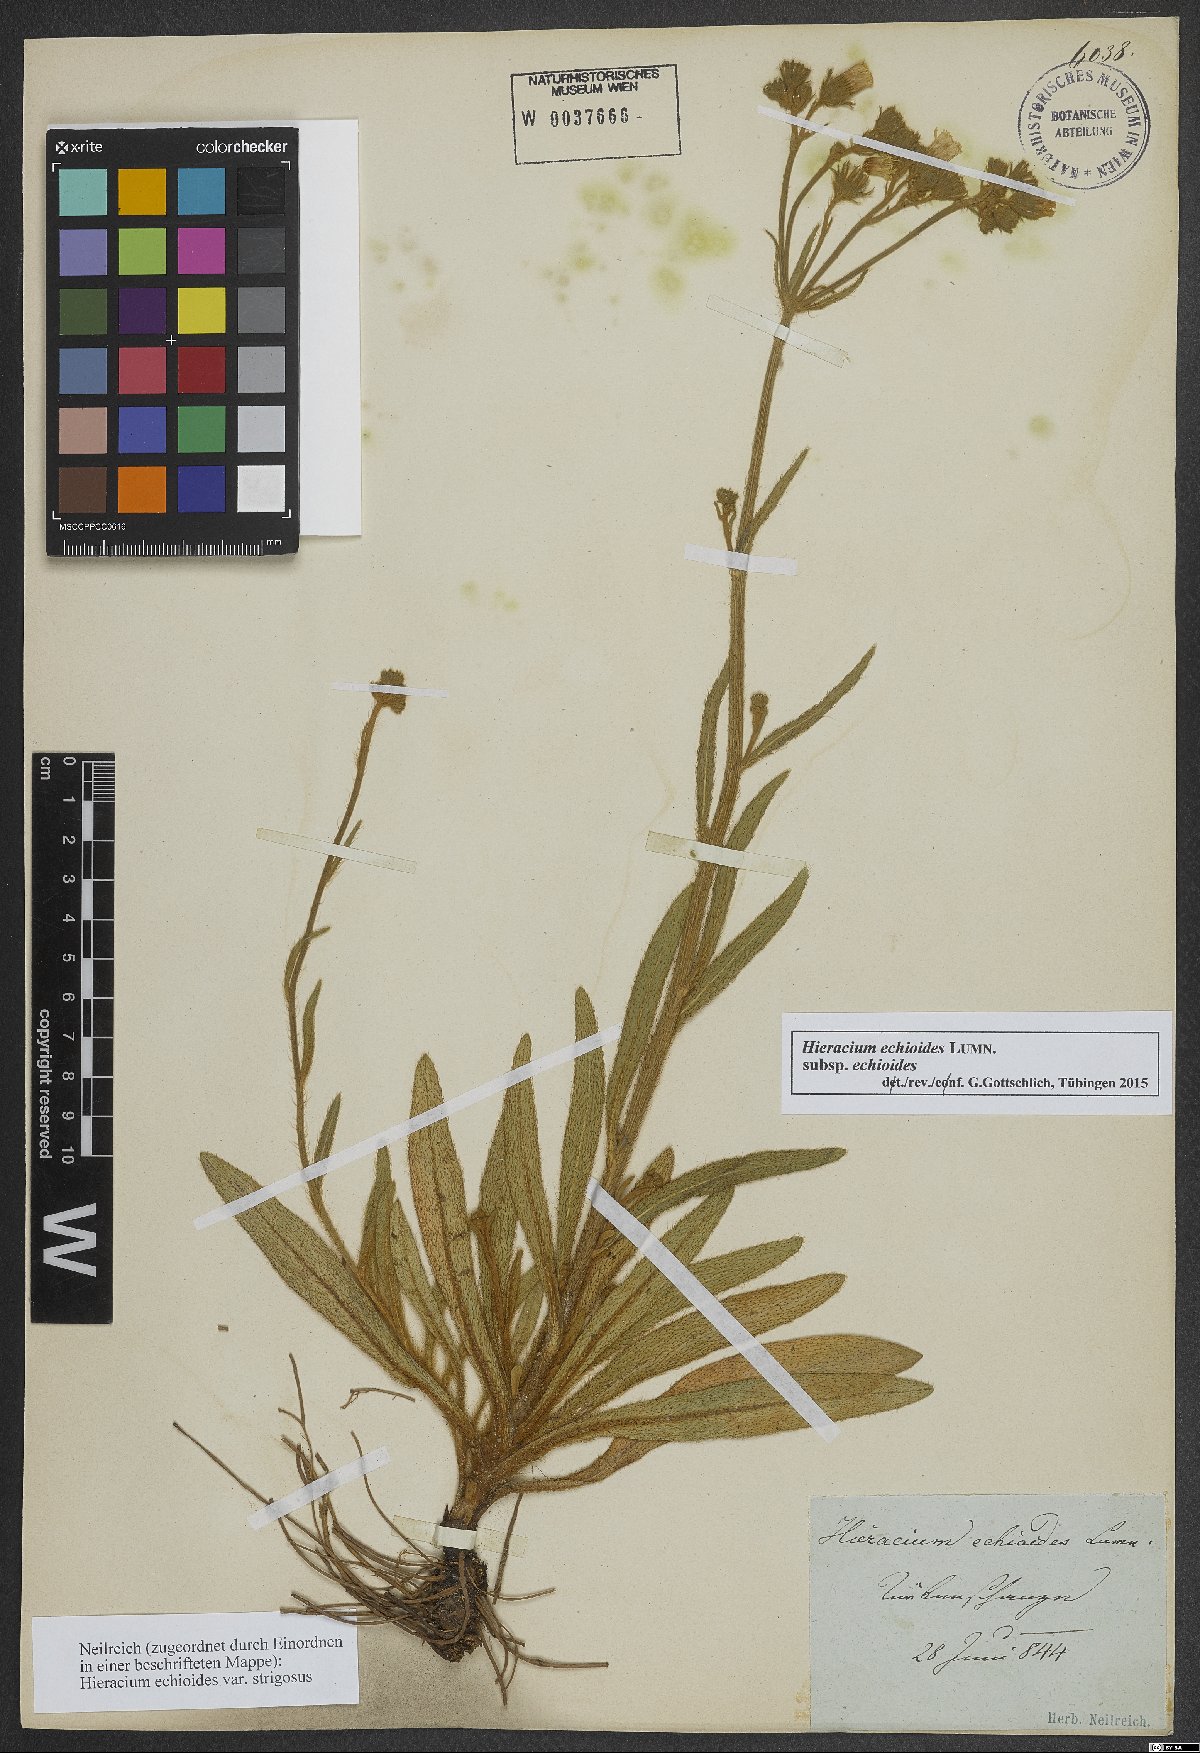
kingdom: Plantae
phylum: Tracheophyta
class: Magnoliopsida
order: Asterales
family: Asteraceae
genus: Pilosella
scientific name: Pilosella echioides
